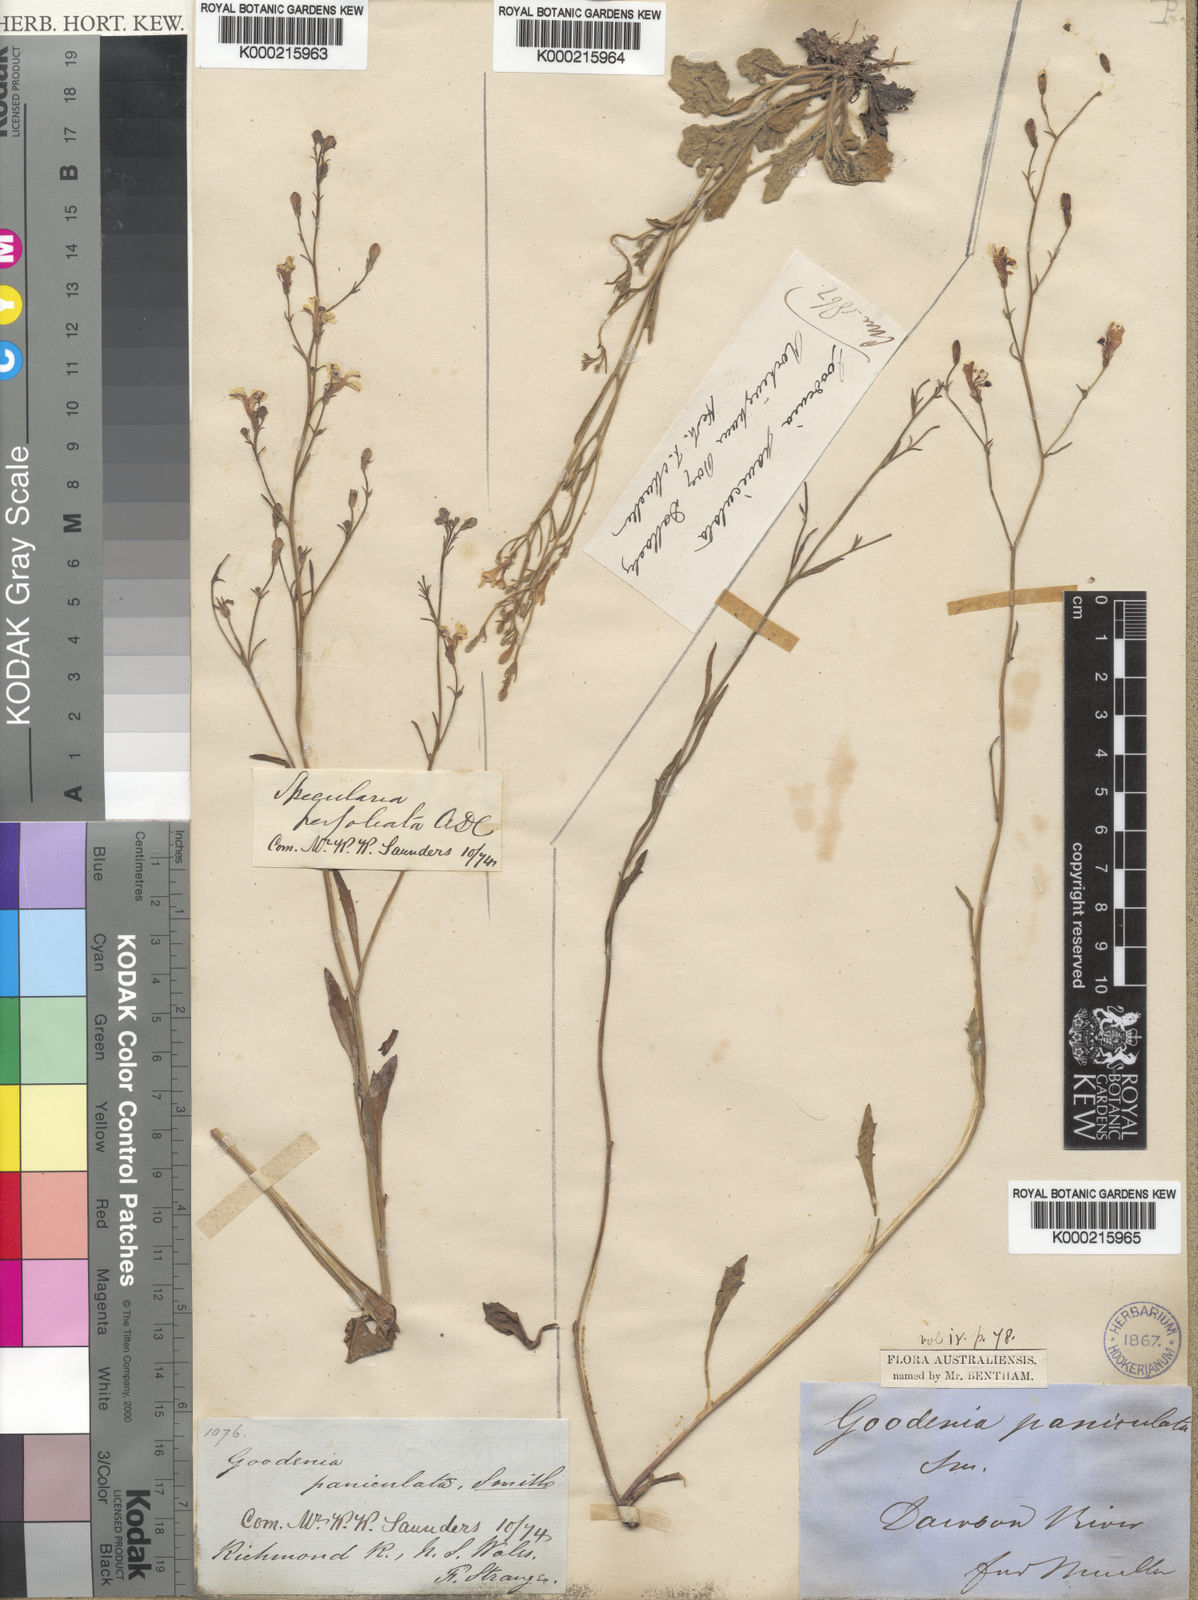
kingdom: Plantae
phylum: Tracheophyta
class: Magnoliopsida
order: Asterales
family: Goodeniaceae
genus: Goodenia
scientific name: Goodenia paniculata
